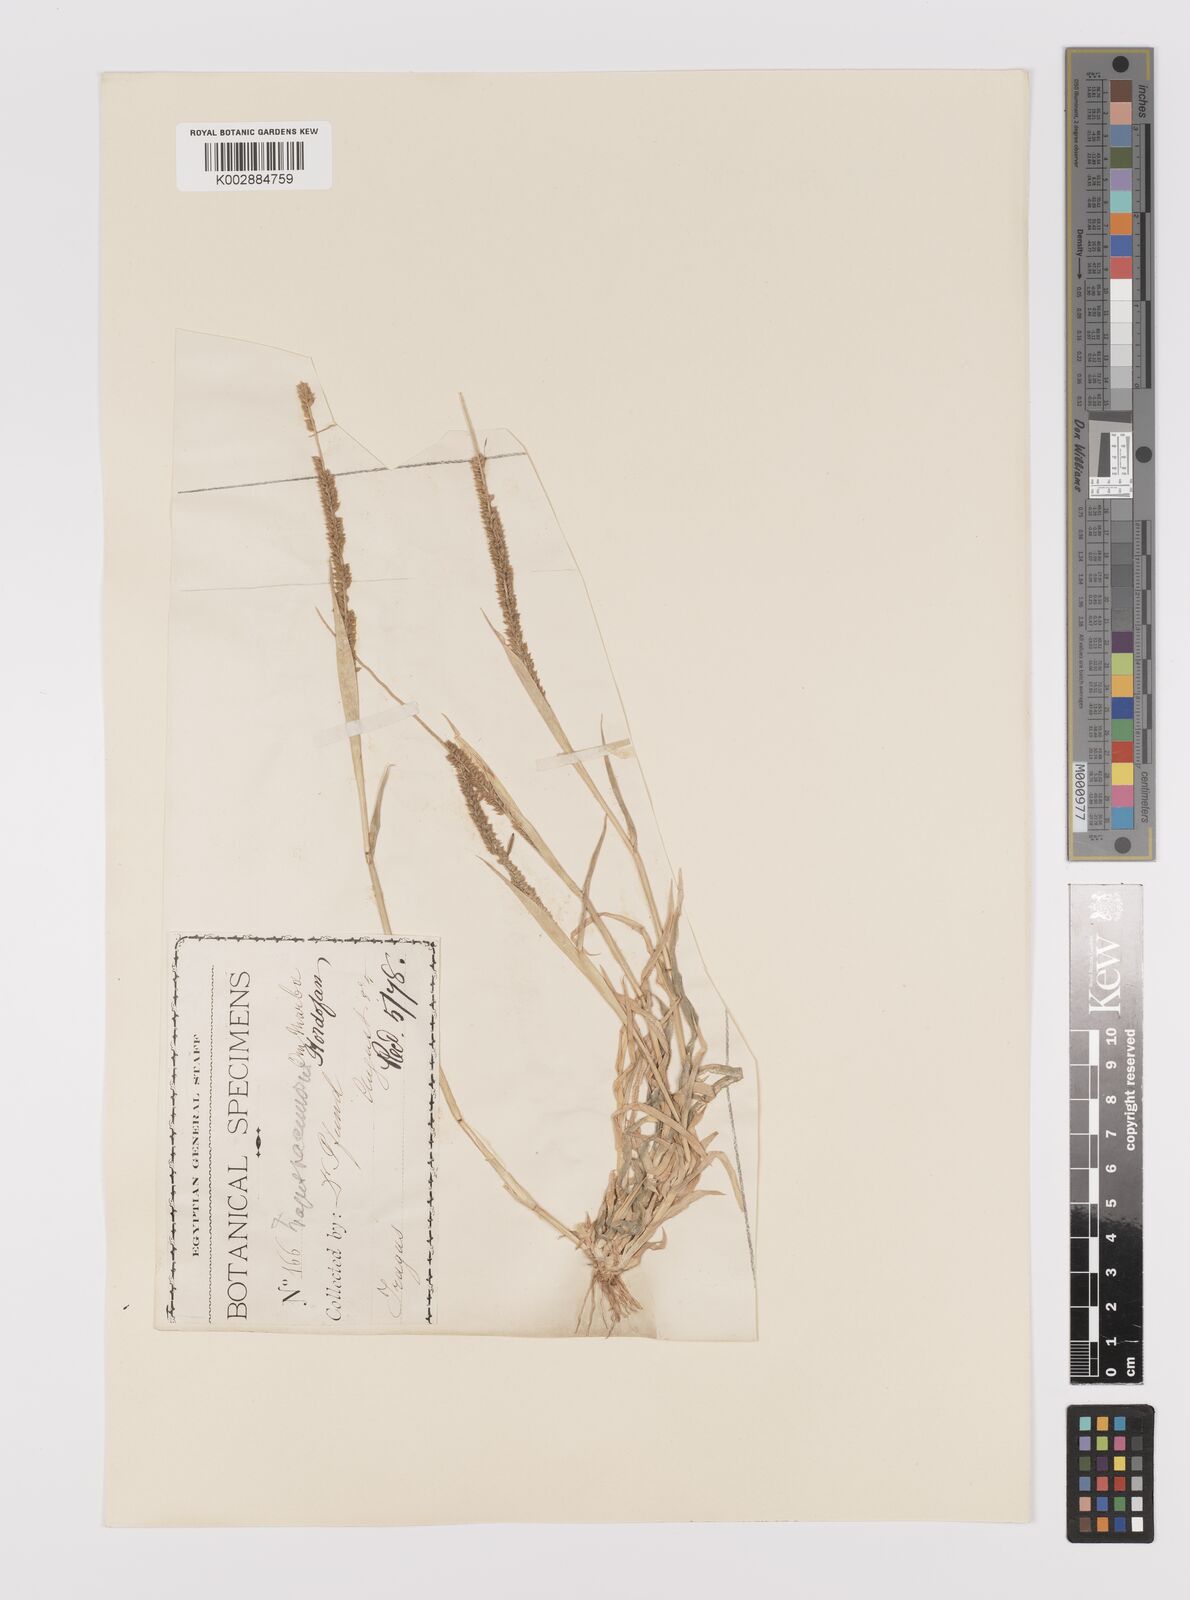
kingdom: Plantae
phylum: Tracheophyta
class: Liliopsida
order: Poales
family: Poaceae
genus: Tragus
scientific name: Tragus berteronianus
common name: African bur-grass
